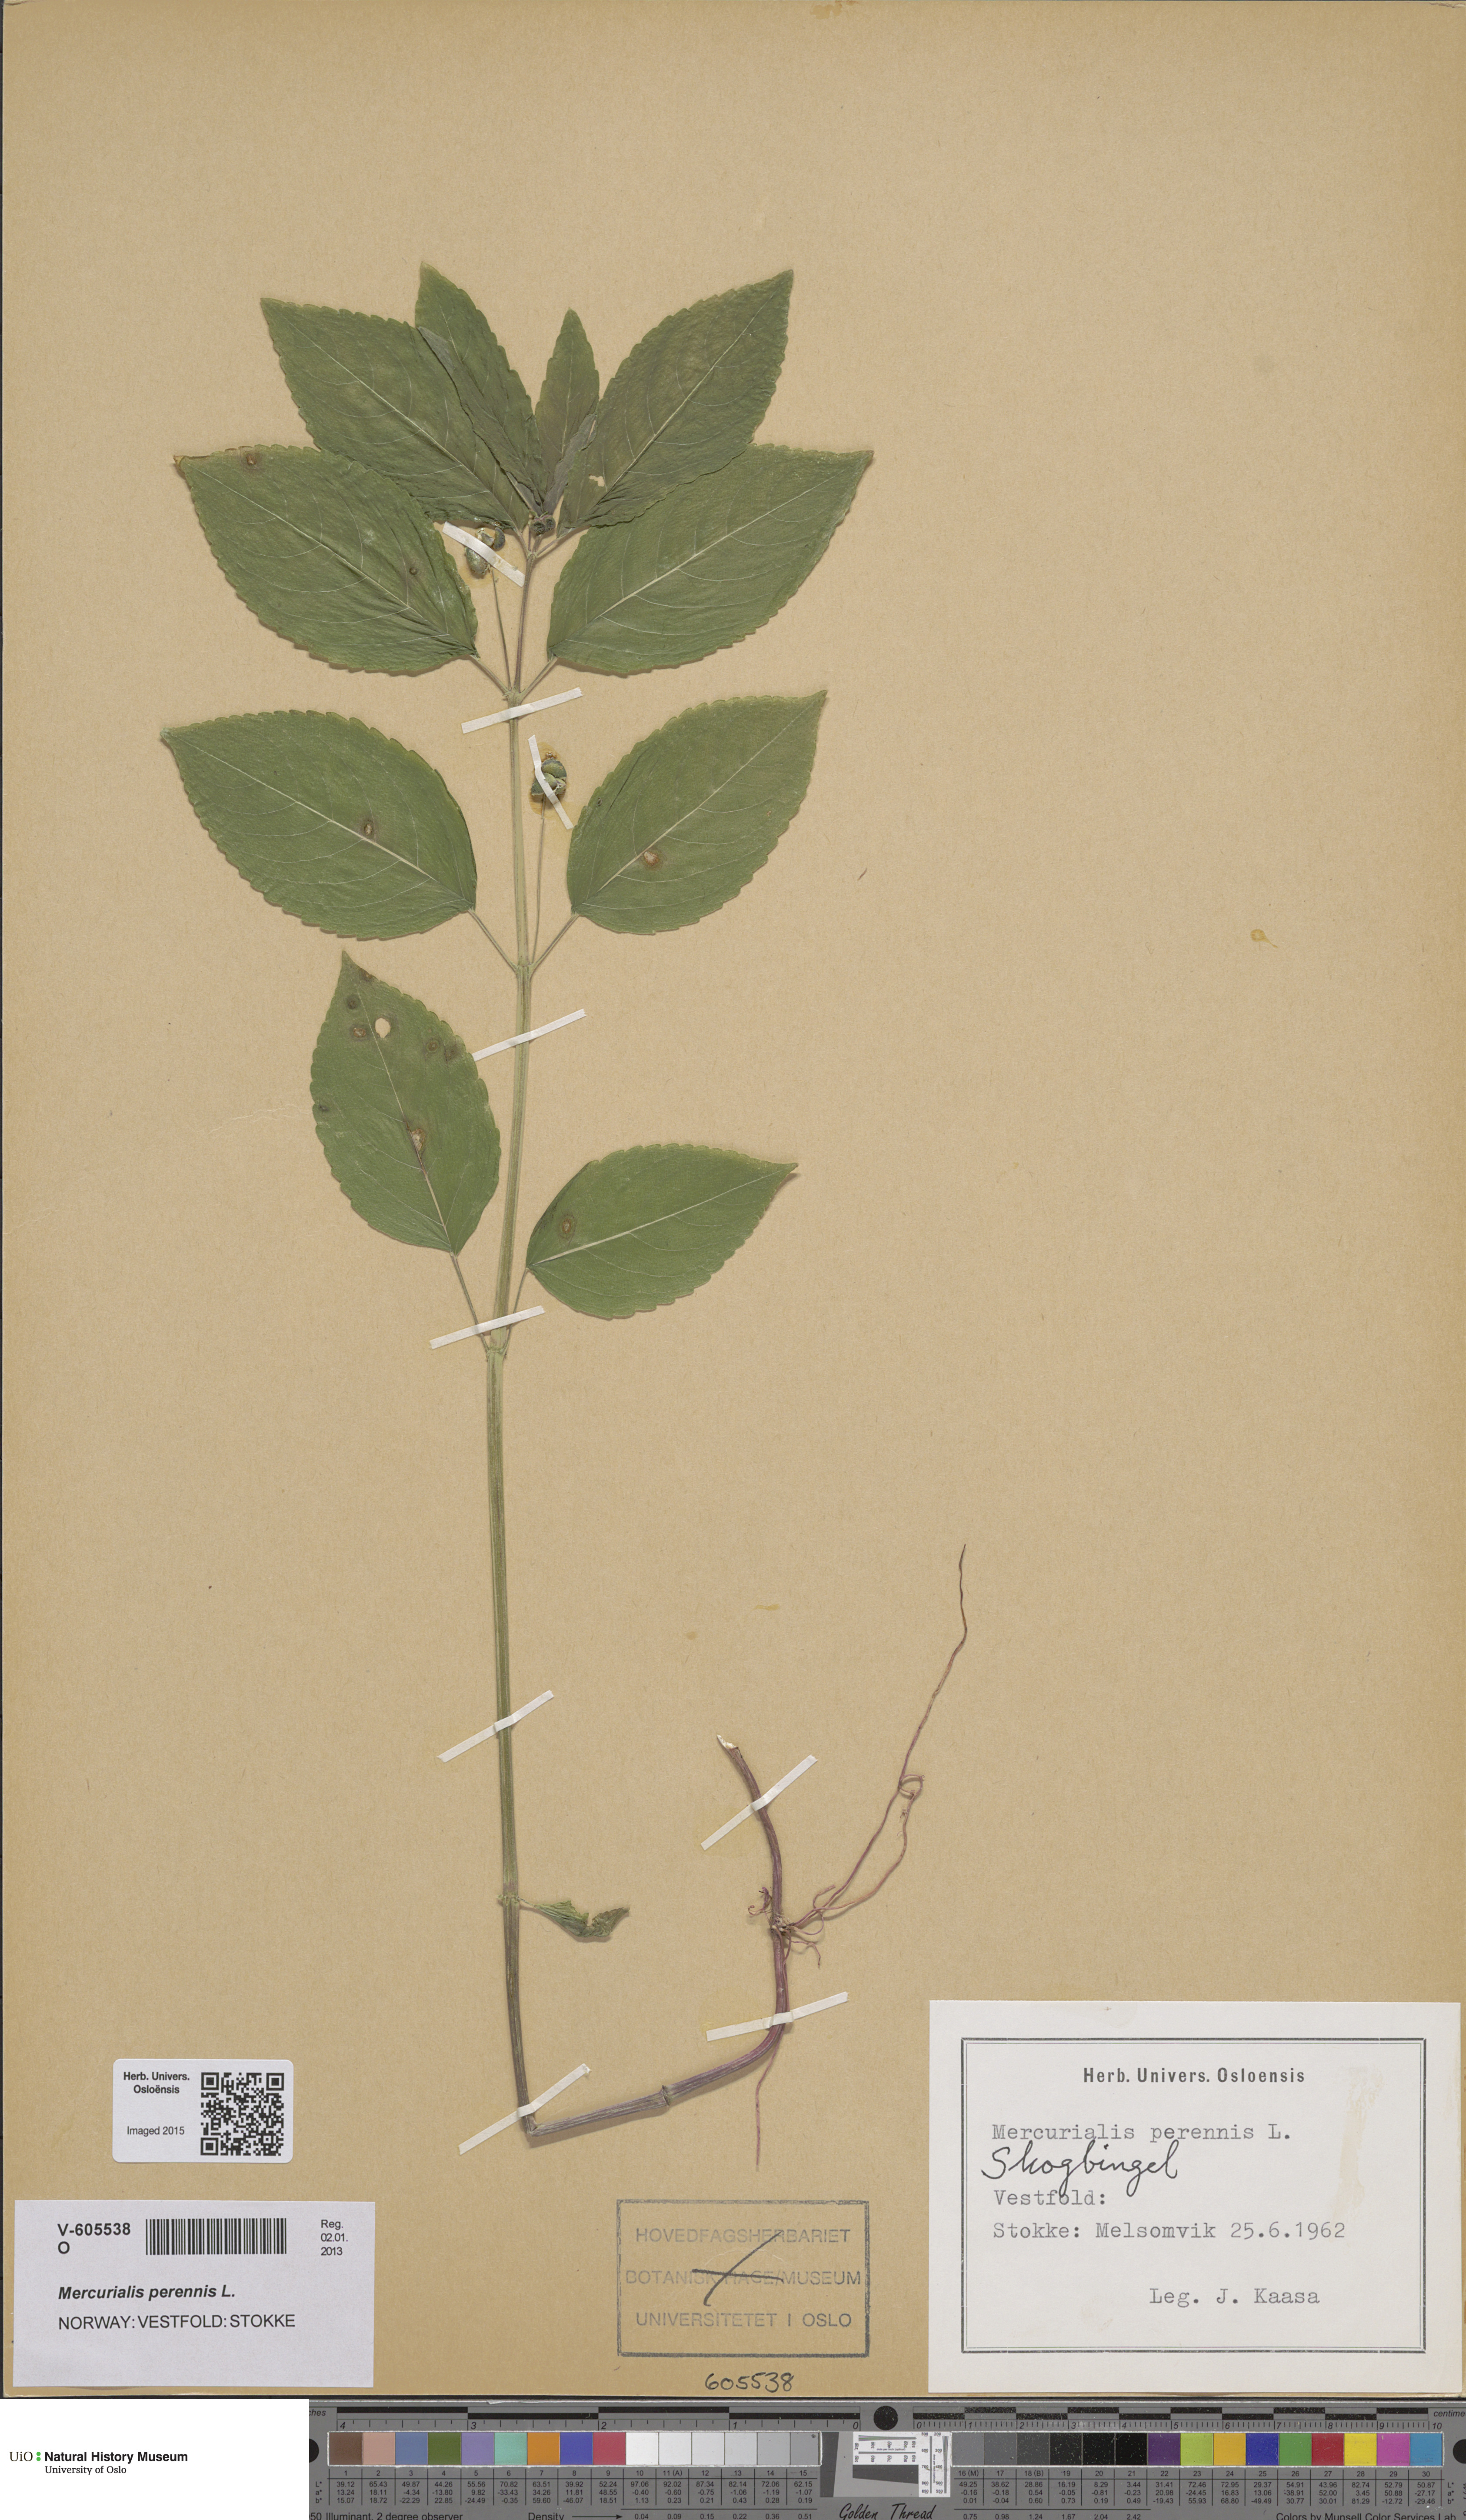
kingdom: Plantae
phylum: Tracheophyta
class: Magnoliopsida
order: Malpighiales
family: Euphorbiaceae
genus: Mercurialis
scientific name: Mercurialis perennis
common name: Dog mercury
